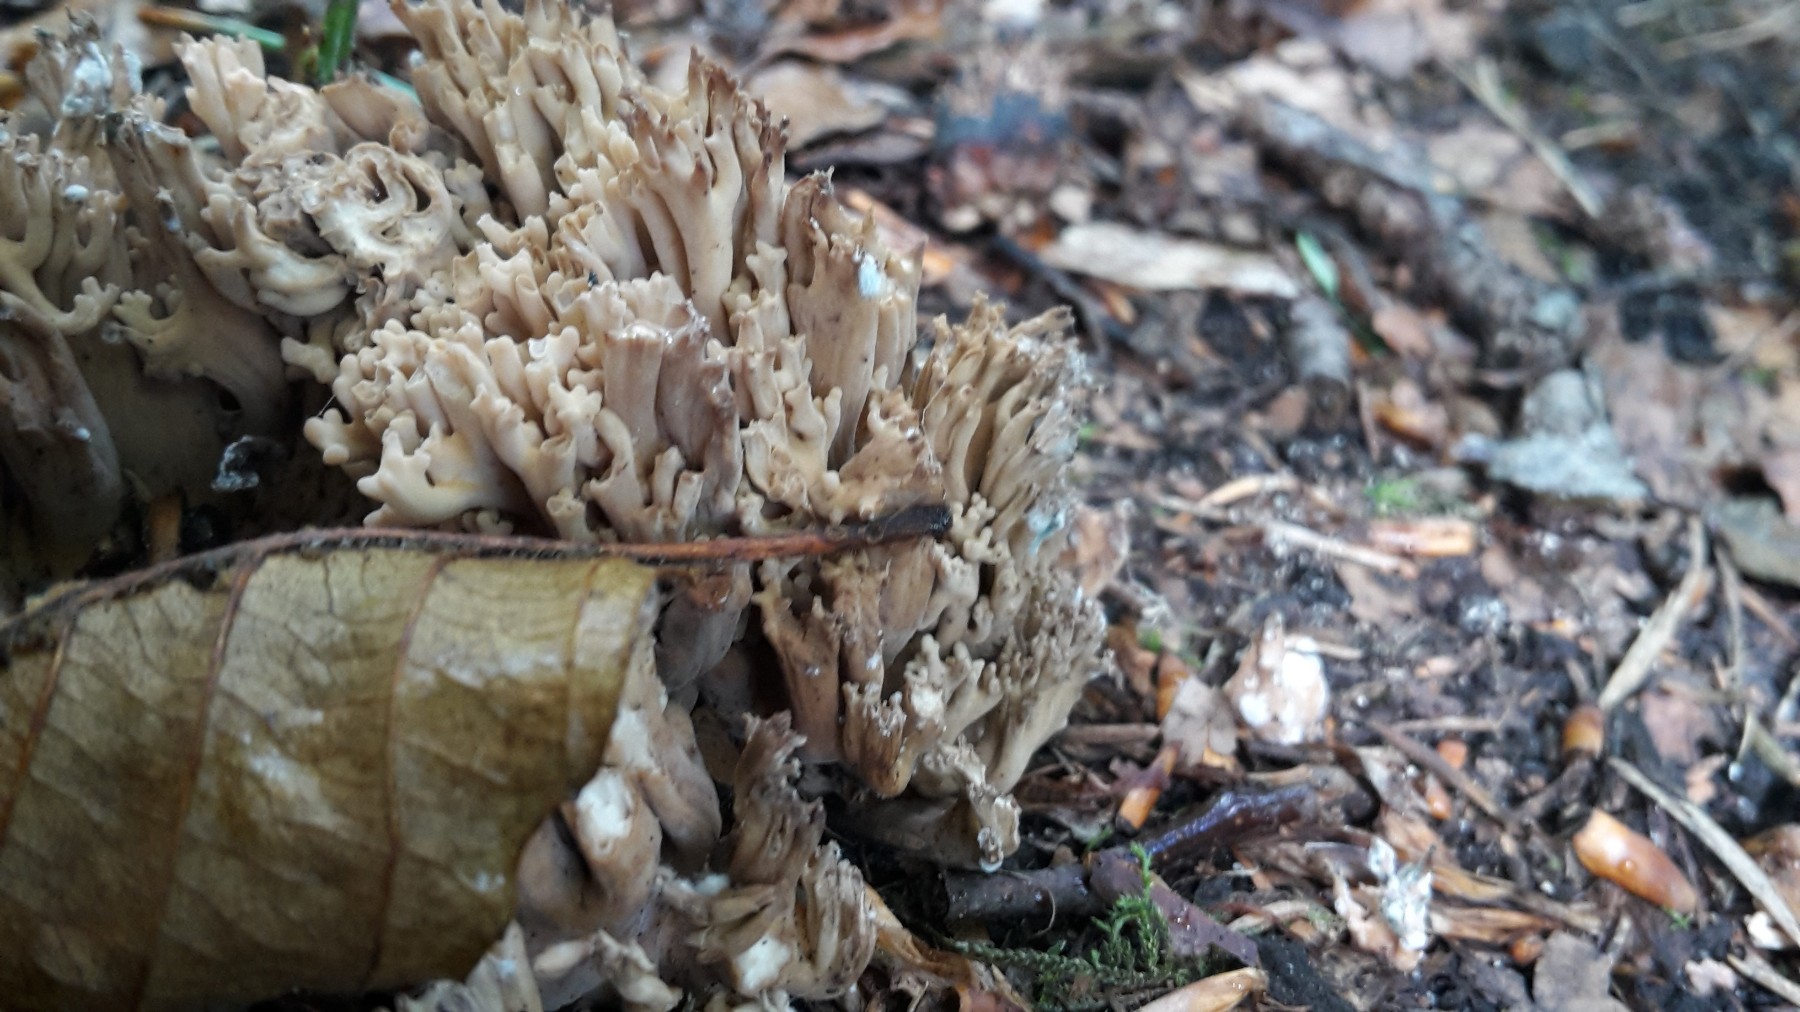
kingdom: Fungi
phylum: Basidiomycota
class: Agaricomycetes
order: Gomphales
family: Gomphaceae
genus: Ramaria
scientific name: Ramaria
